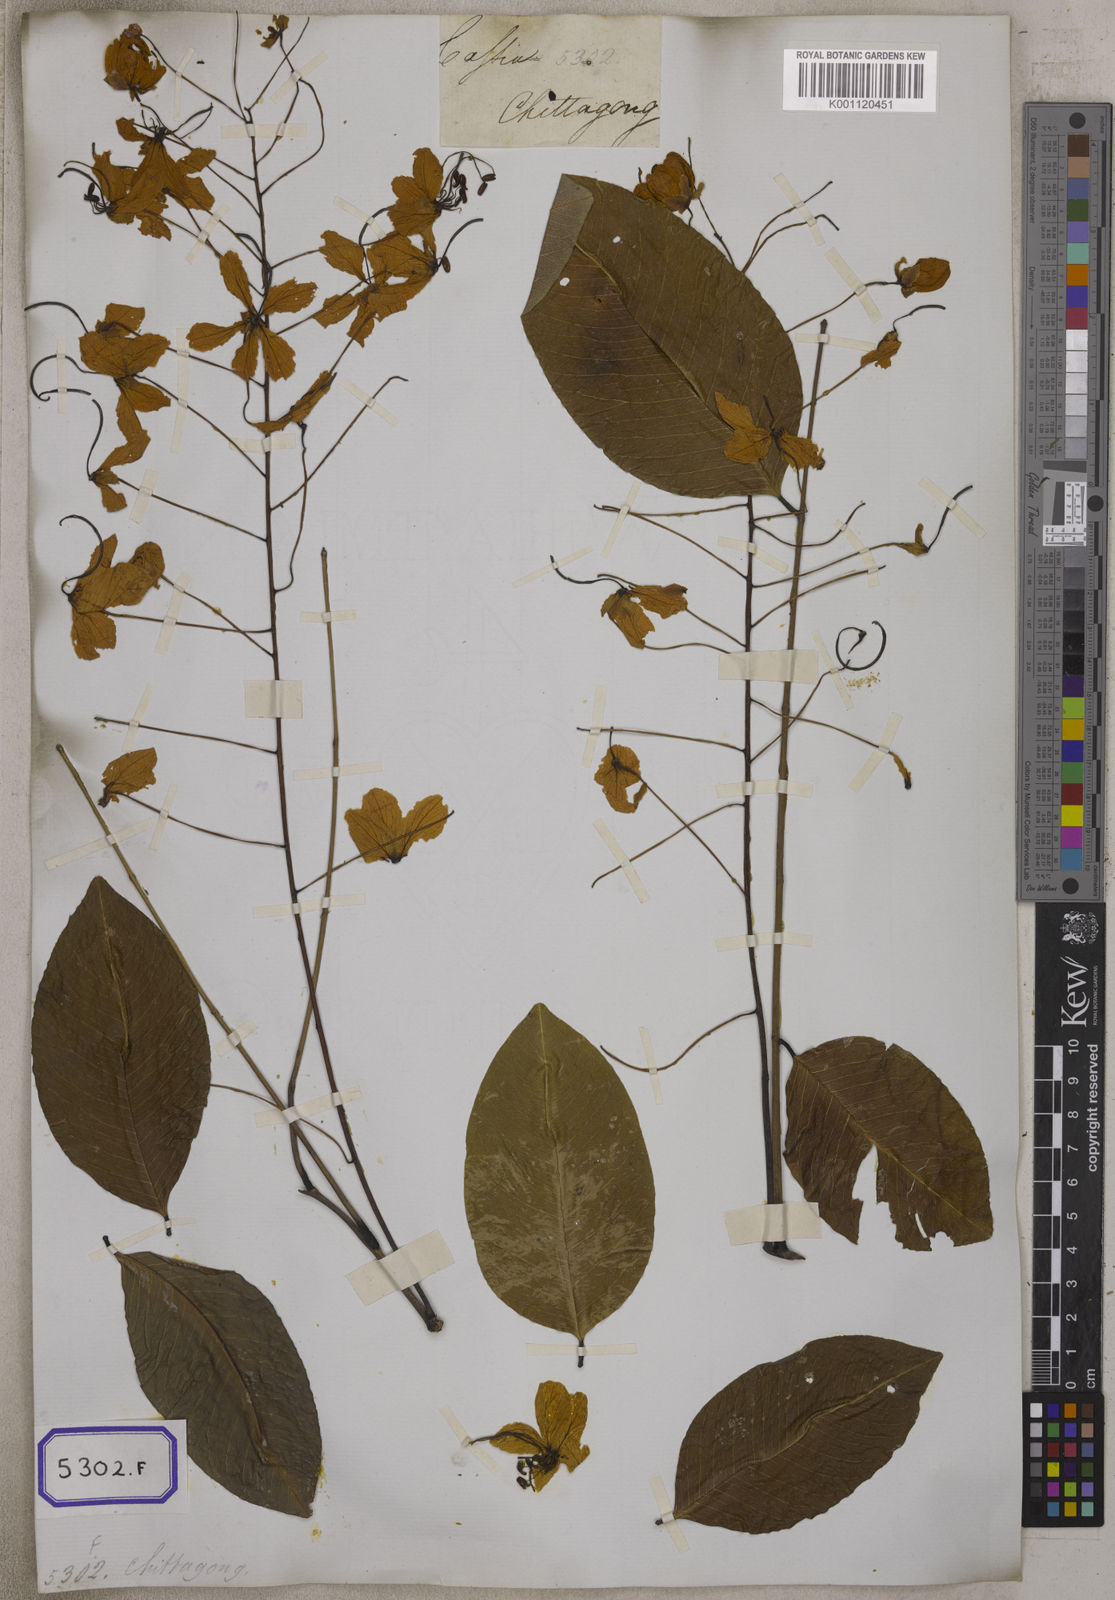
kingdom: Plantae
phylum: Tracheophyta
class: Magnoliopsida
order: Fabales
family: Fabaceae
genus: Cassia
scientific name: Cassia fistula
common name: Golden shower
